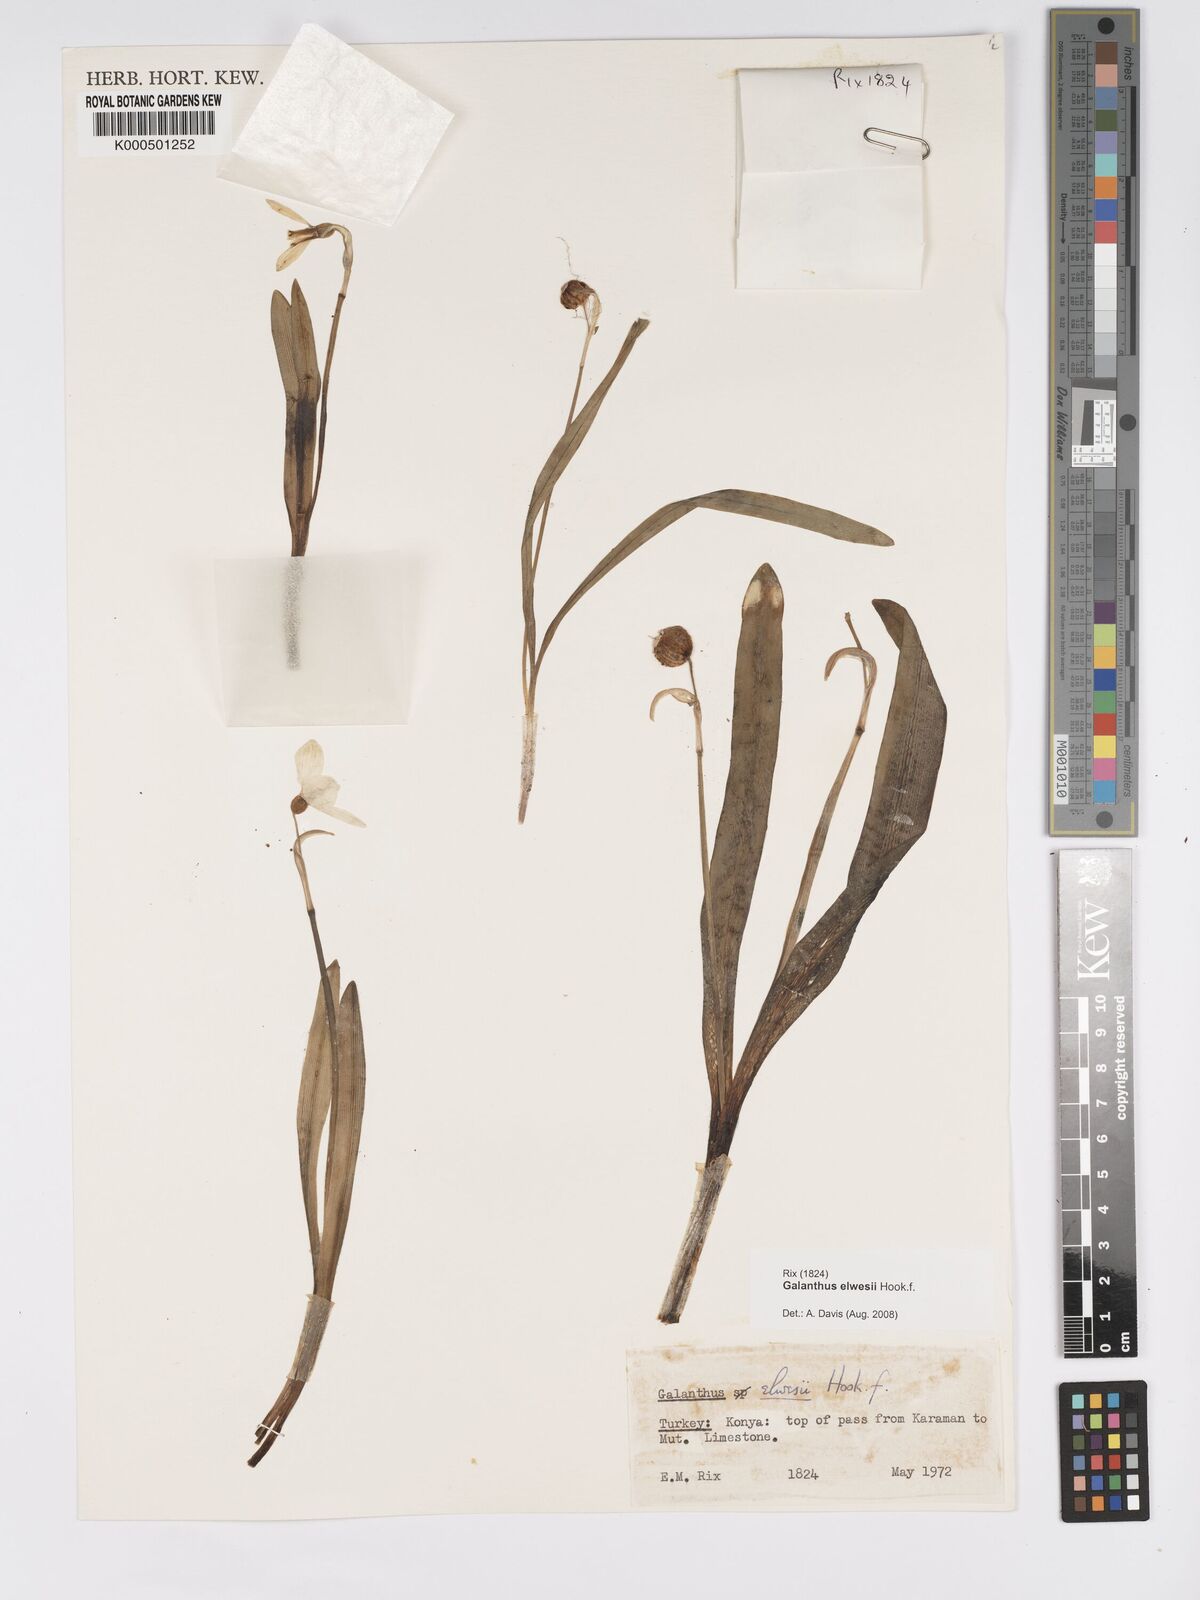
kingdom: Plantae
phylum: Tracheophyta
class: Liliopsida
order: Asparagales
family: Amaryllidaceae
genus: Galanthus
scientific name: Galanthus elwesii
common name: Greater snowdrop
